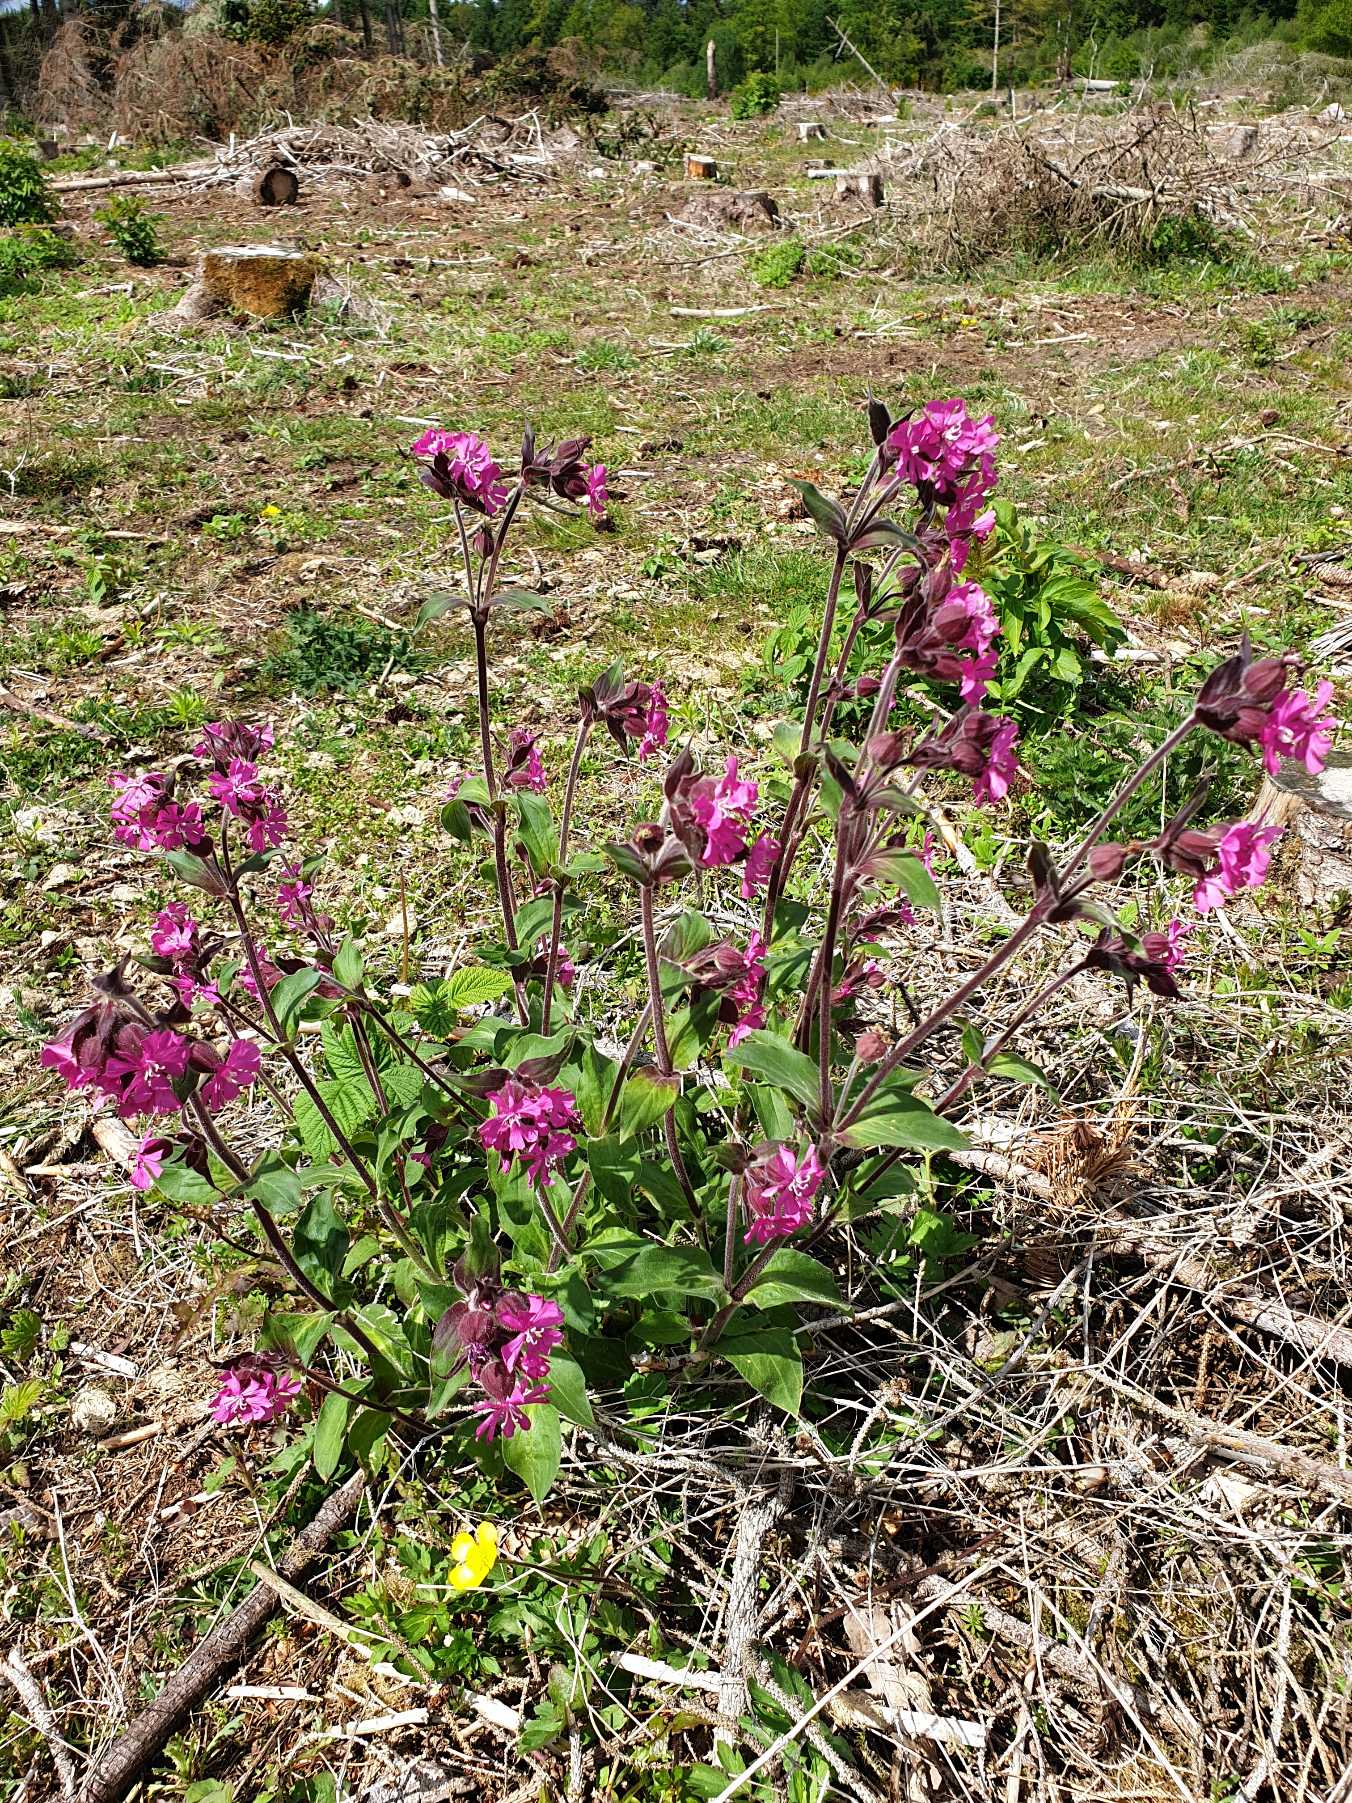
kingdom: Plantae
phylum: Tracheophyta
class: Magnoliopsida
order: Caryophyllales
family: Caryophyllaceae
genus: Silene
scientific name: Silene dioica
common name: Dagpragtstjerne
